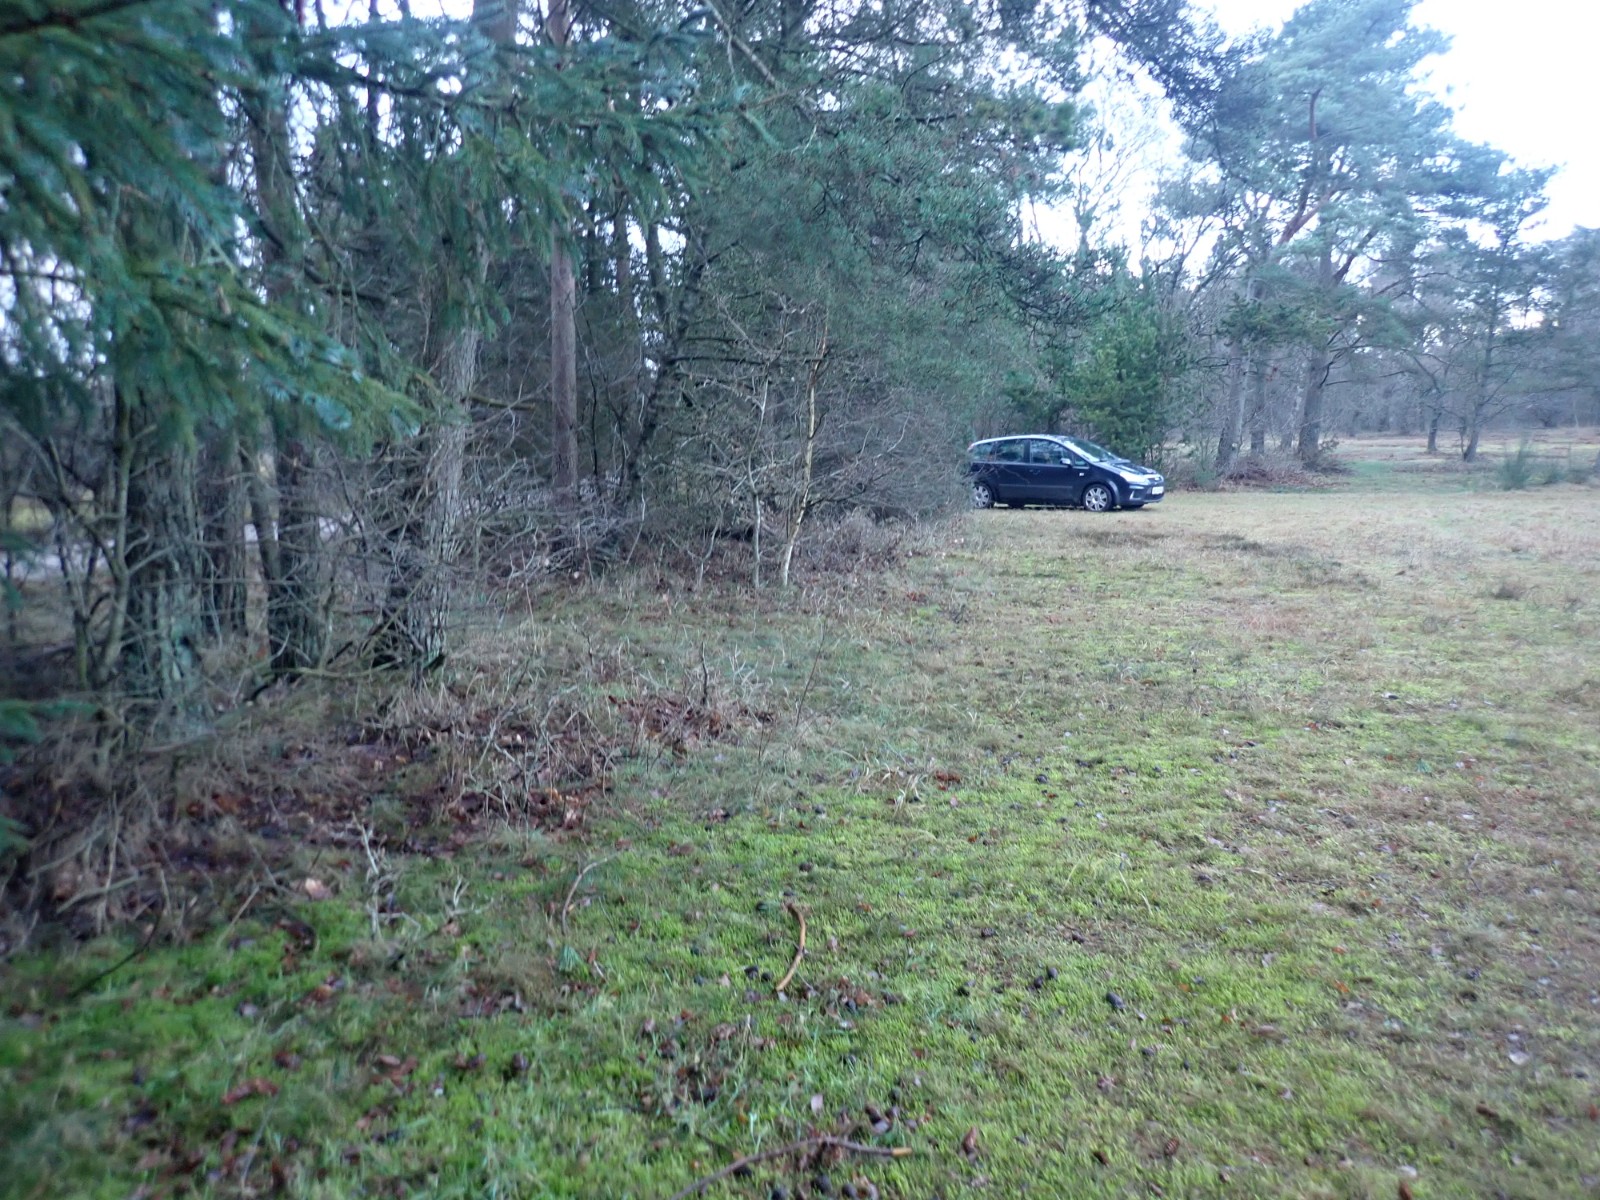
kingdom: Fungi
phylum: Basidiomycota
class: Agaricomycetes
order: Agaricales
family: Hygrophoraceae
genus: Hygrophorus
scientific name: Hygrophorus hypothejus
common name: frost-sneglehat
